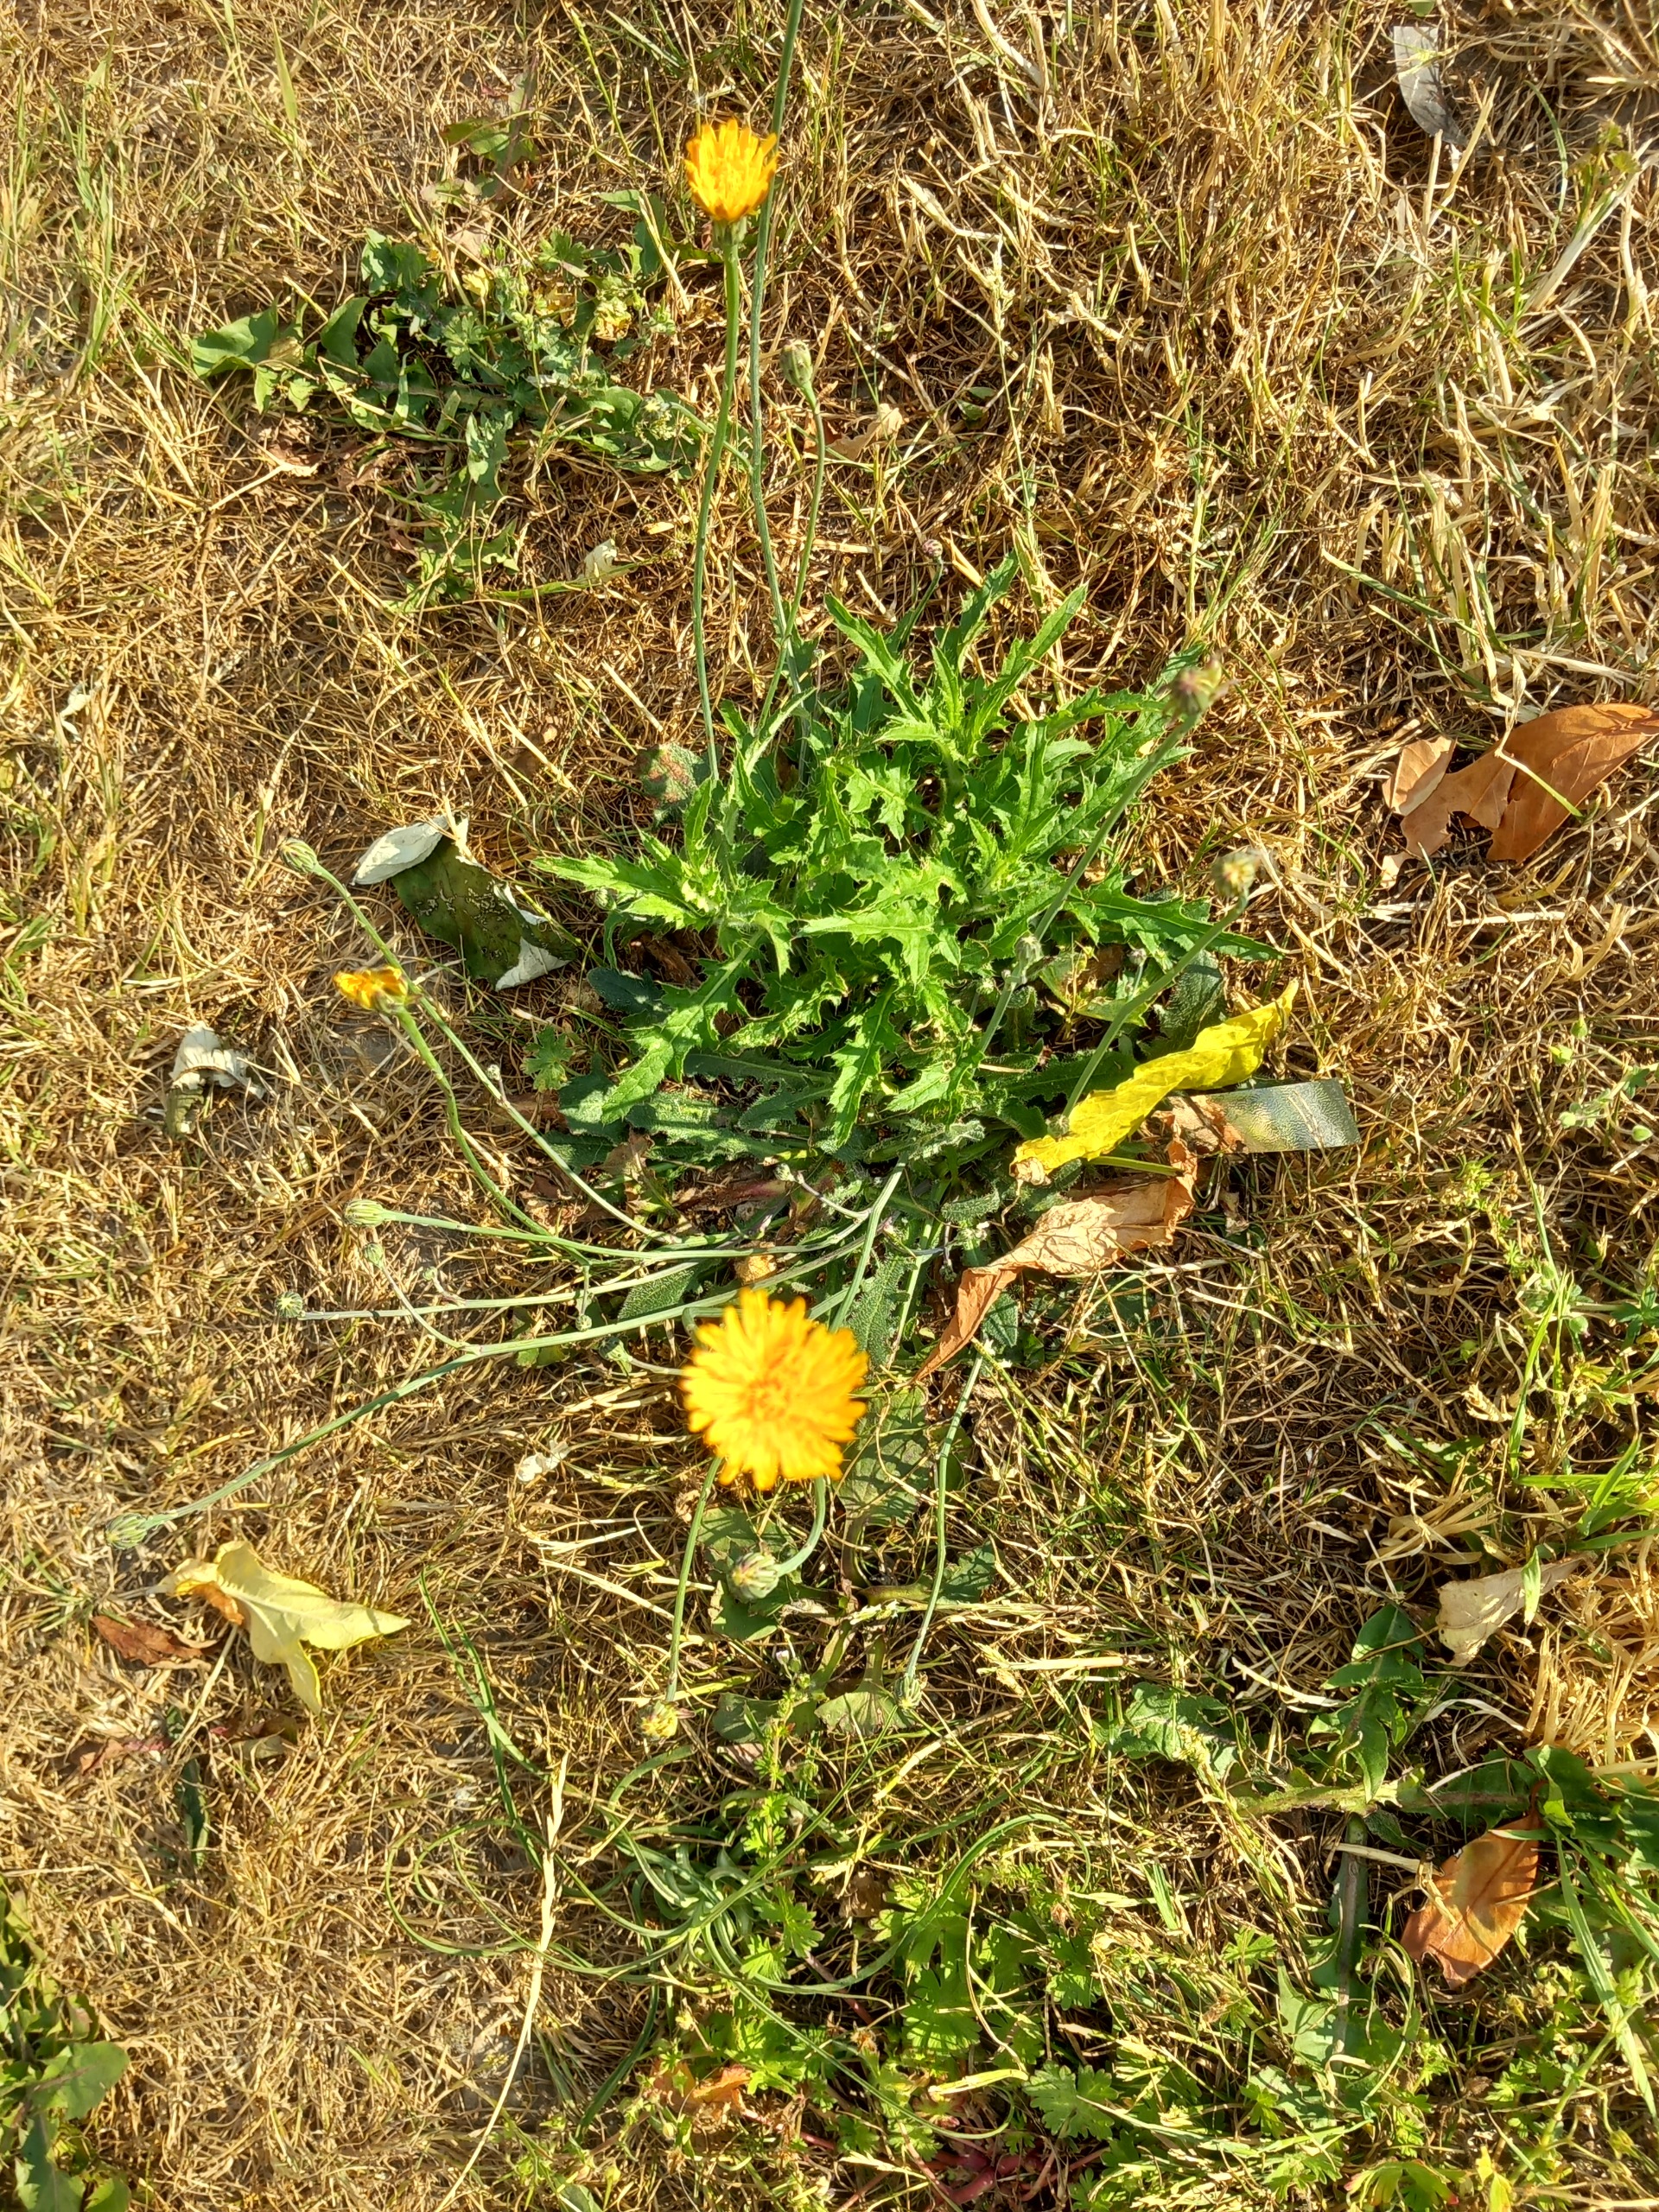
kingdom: Plantae
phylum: Tracheophyta
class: Magnoliopsida
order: Asterales
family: Asteraceae
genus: Hypochaeris
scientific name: Hypochaeris radicata
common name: Almindelig kongepen
